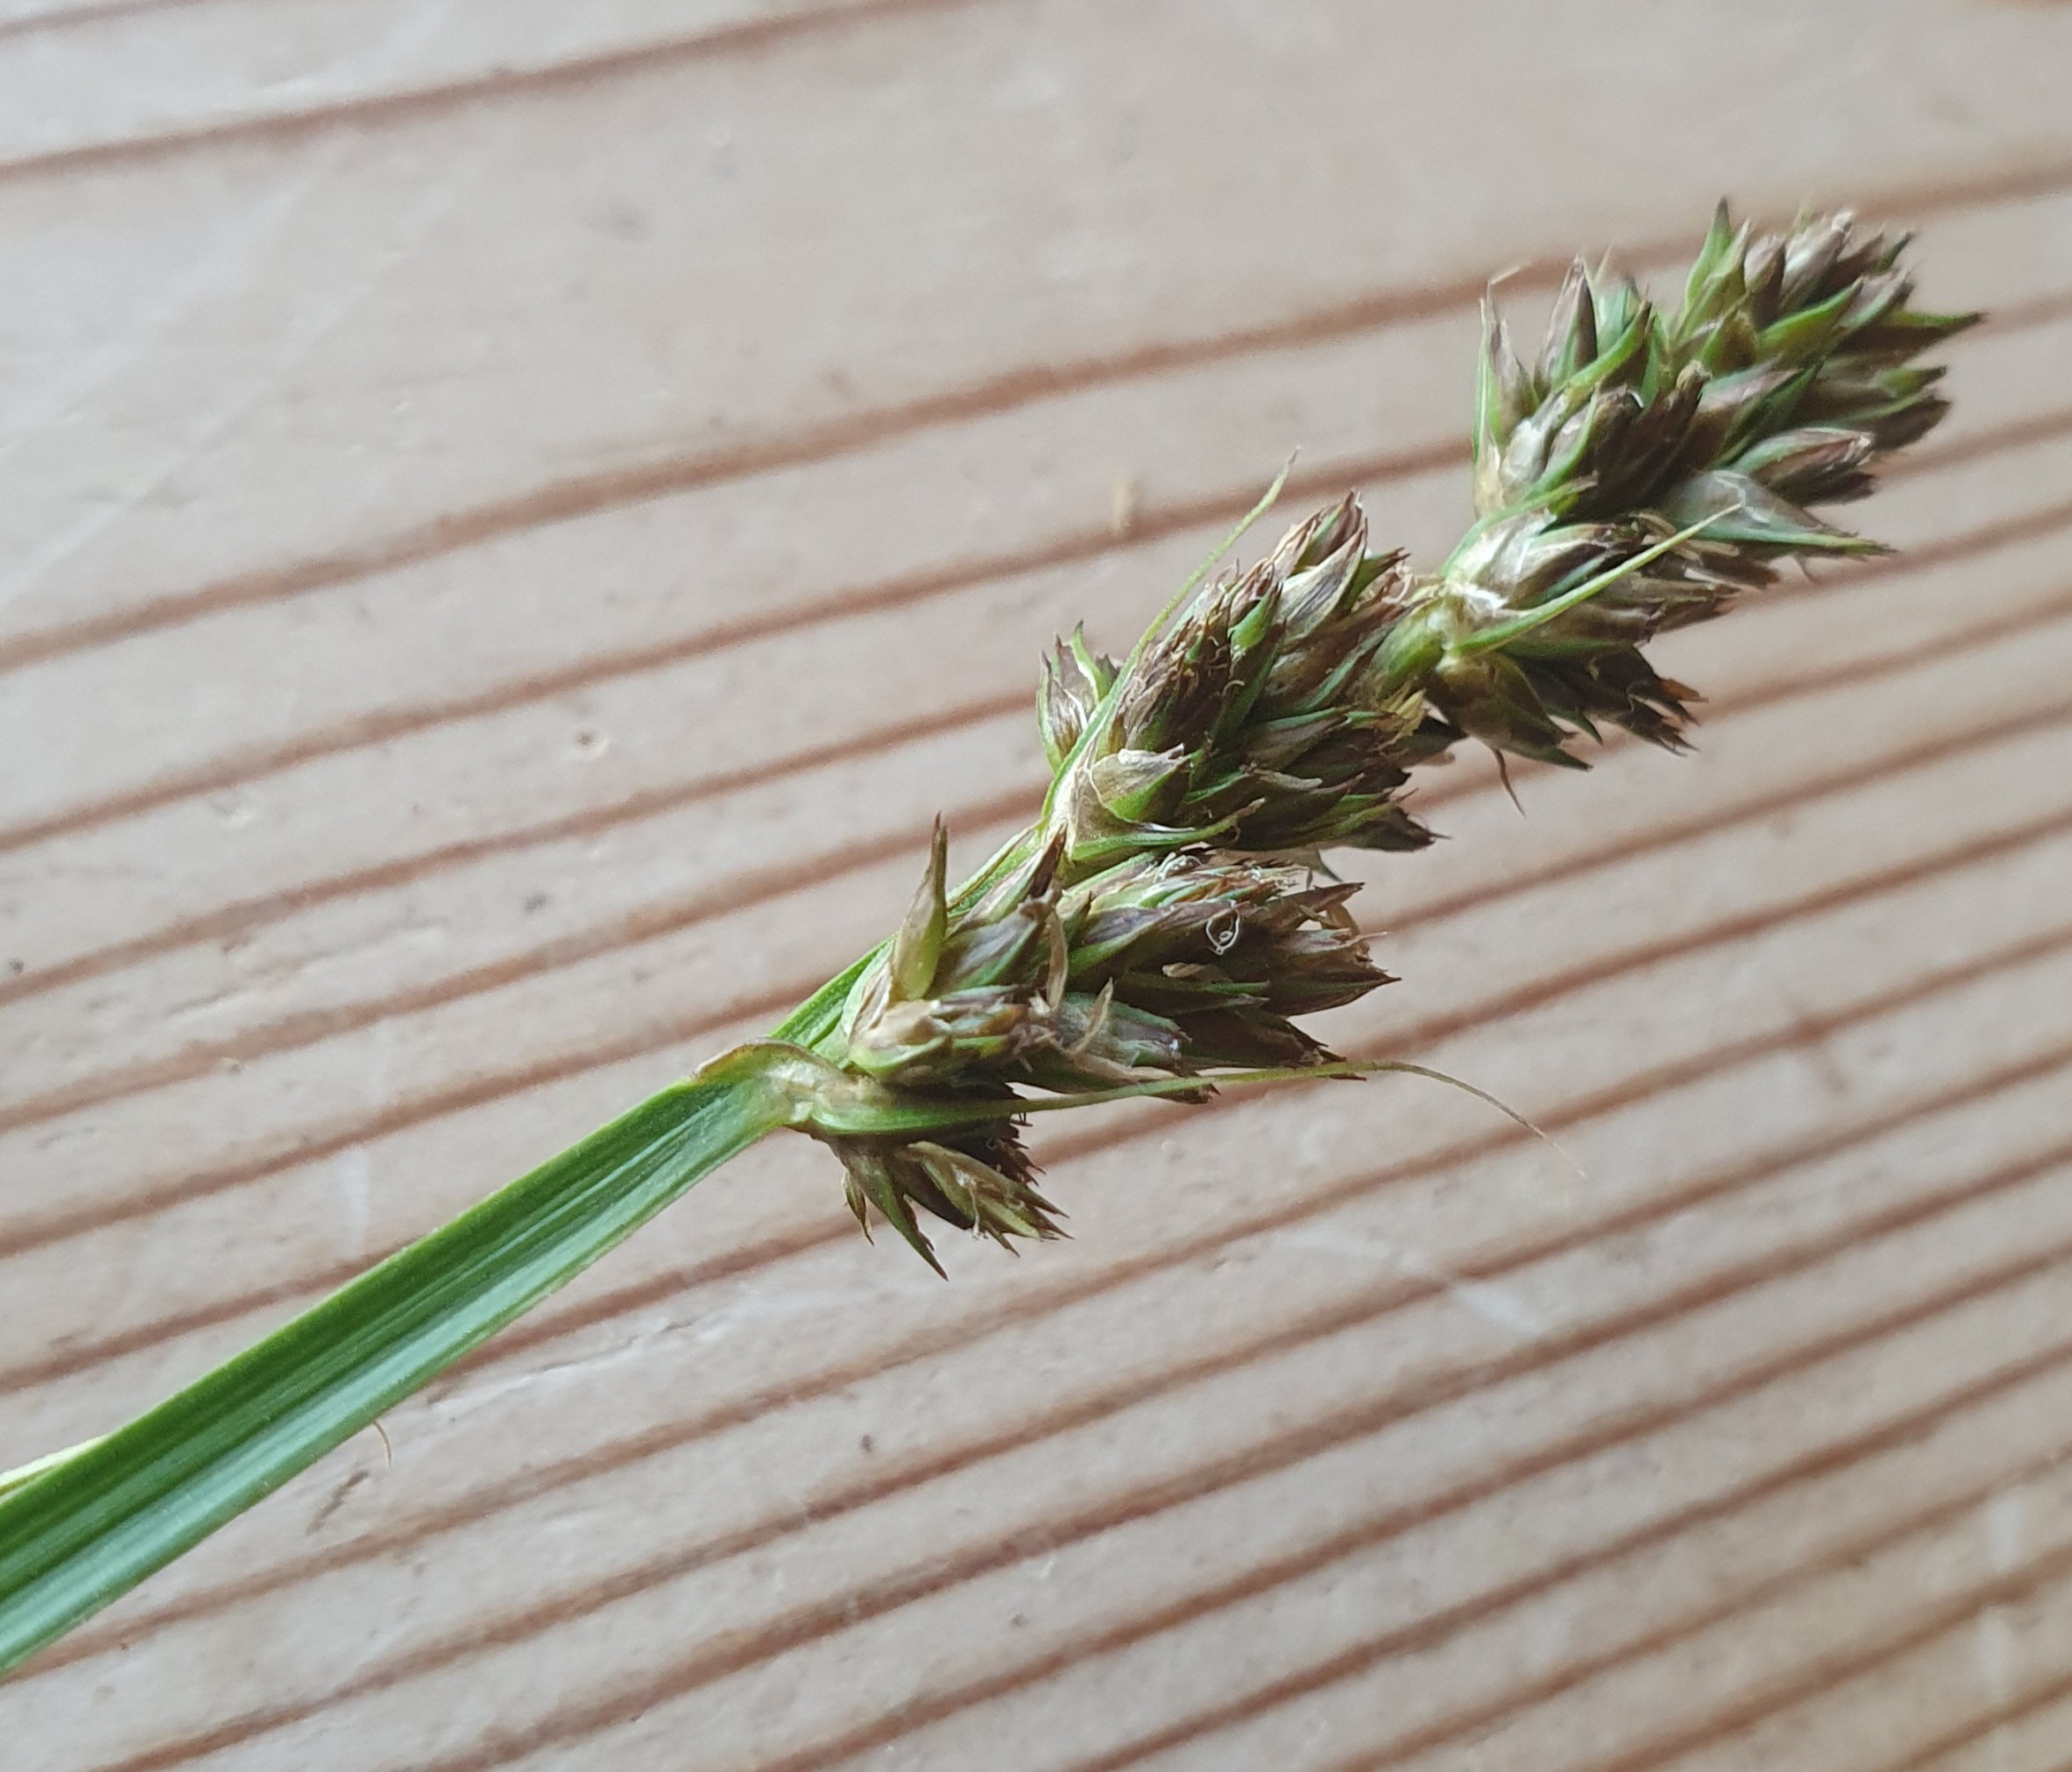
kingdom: Plantae
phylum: Tracheophyta
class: Liliopsida
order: Poales
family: Cyperaceae
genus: Carex
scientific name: Carex otrubae
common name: Sylt-star
